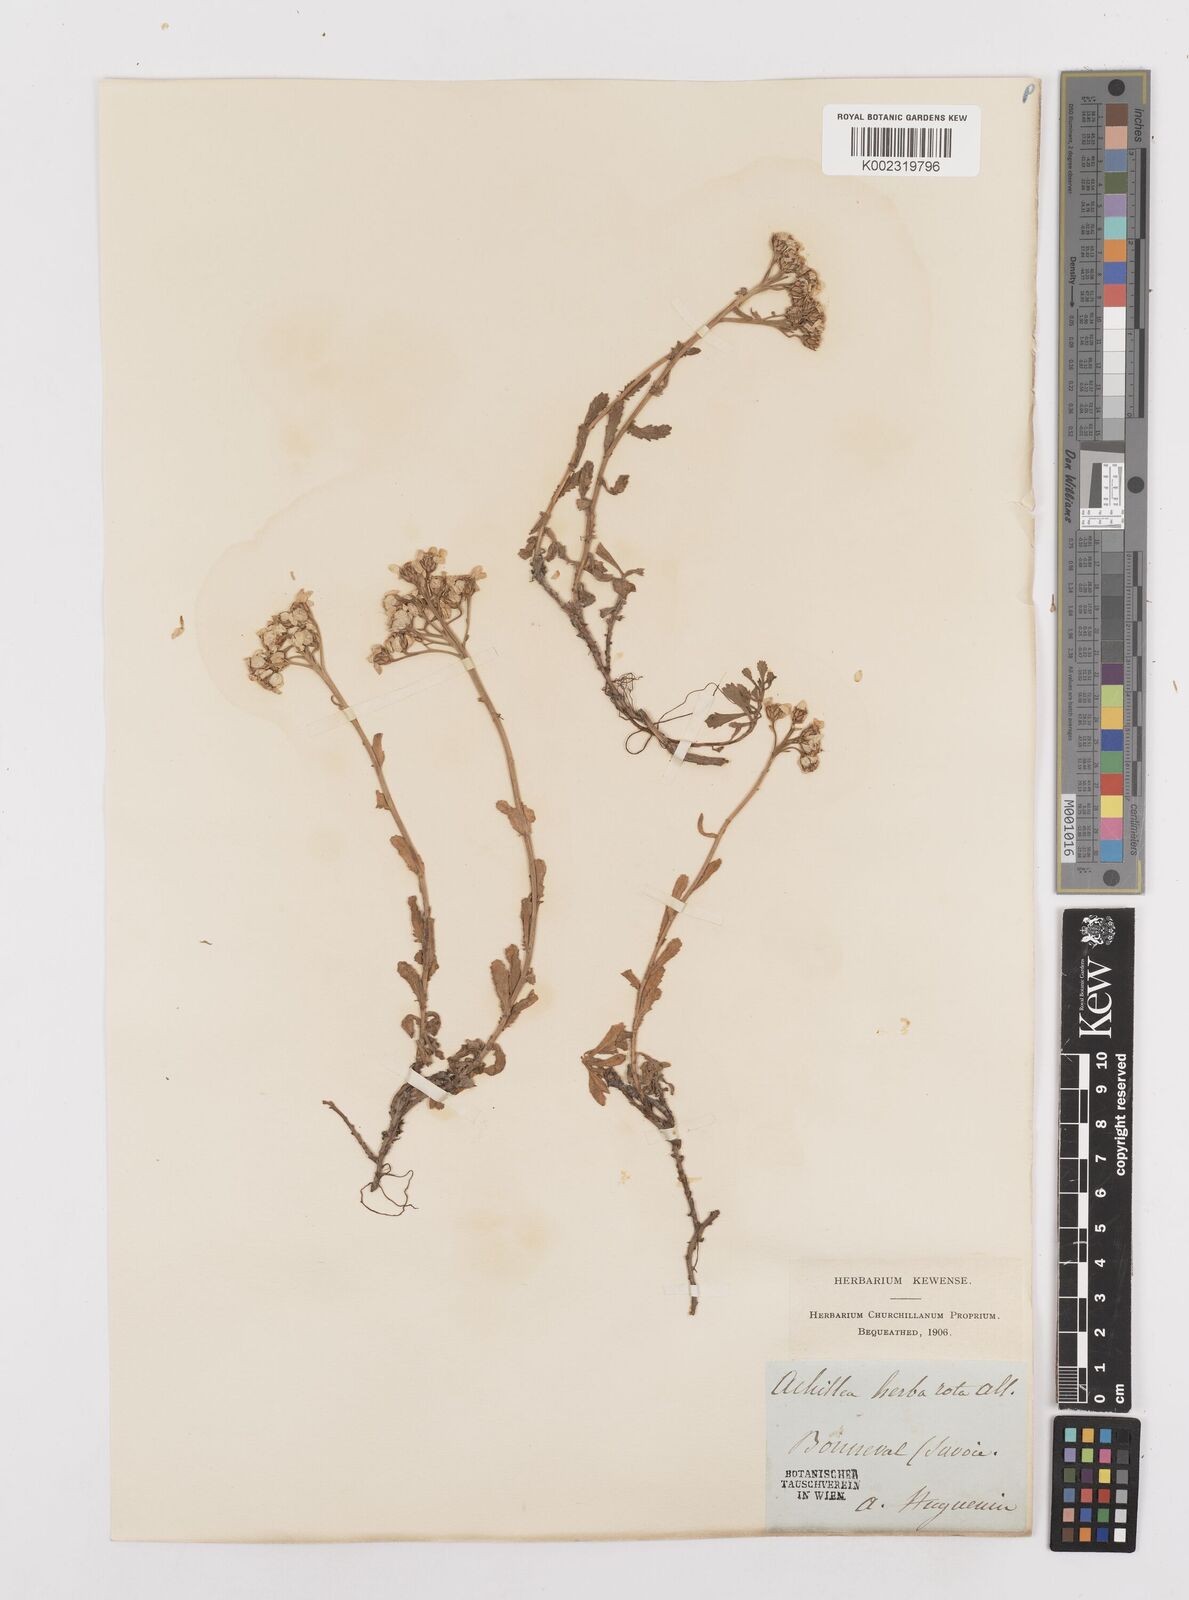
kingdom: Plantae
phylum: Tracheophyta
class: Magnoliopsida
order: Asterales
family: Asteraceae
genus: Achillea
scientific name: Achillea erba-rotta
